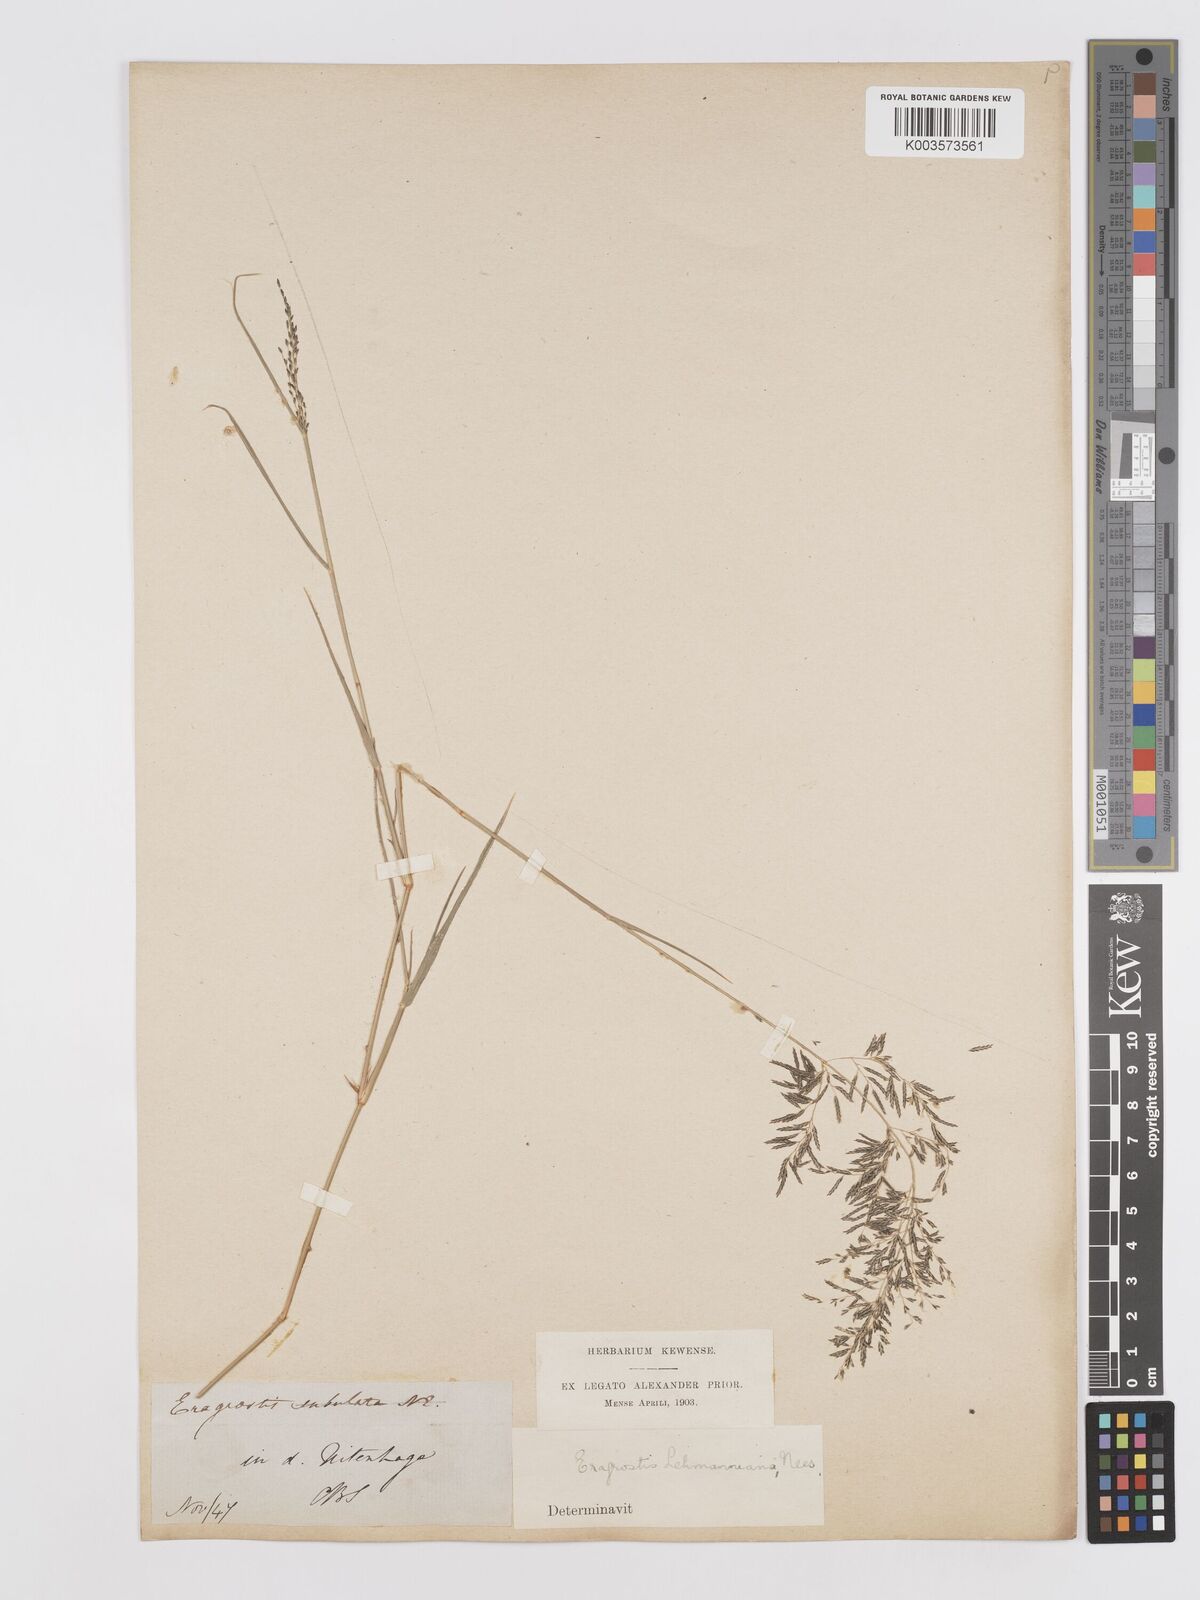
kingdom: Plantae
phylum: Tracheophyta
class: Liliopsida
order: Poales
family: Poaceae
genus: Eragrostis
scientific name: Eragrostis lehmanniana
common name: Lehmann lovegrass
